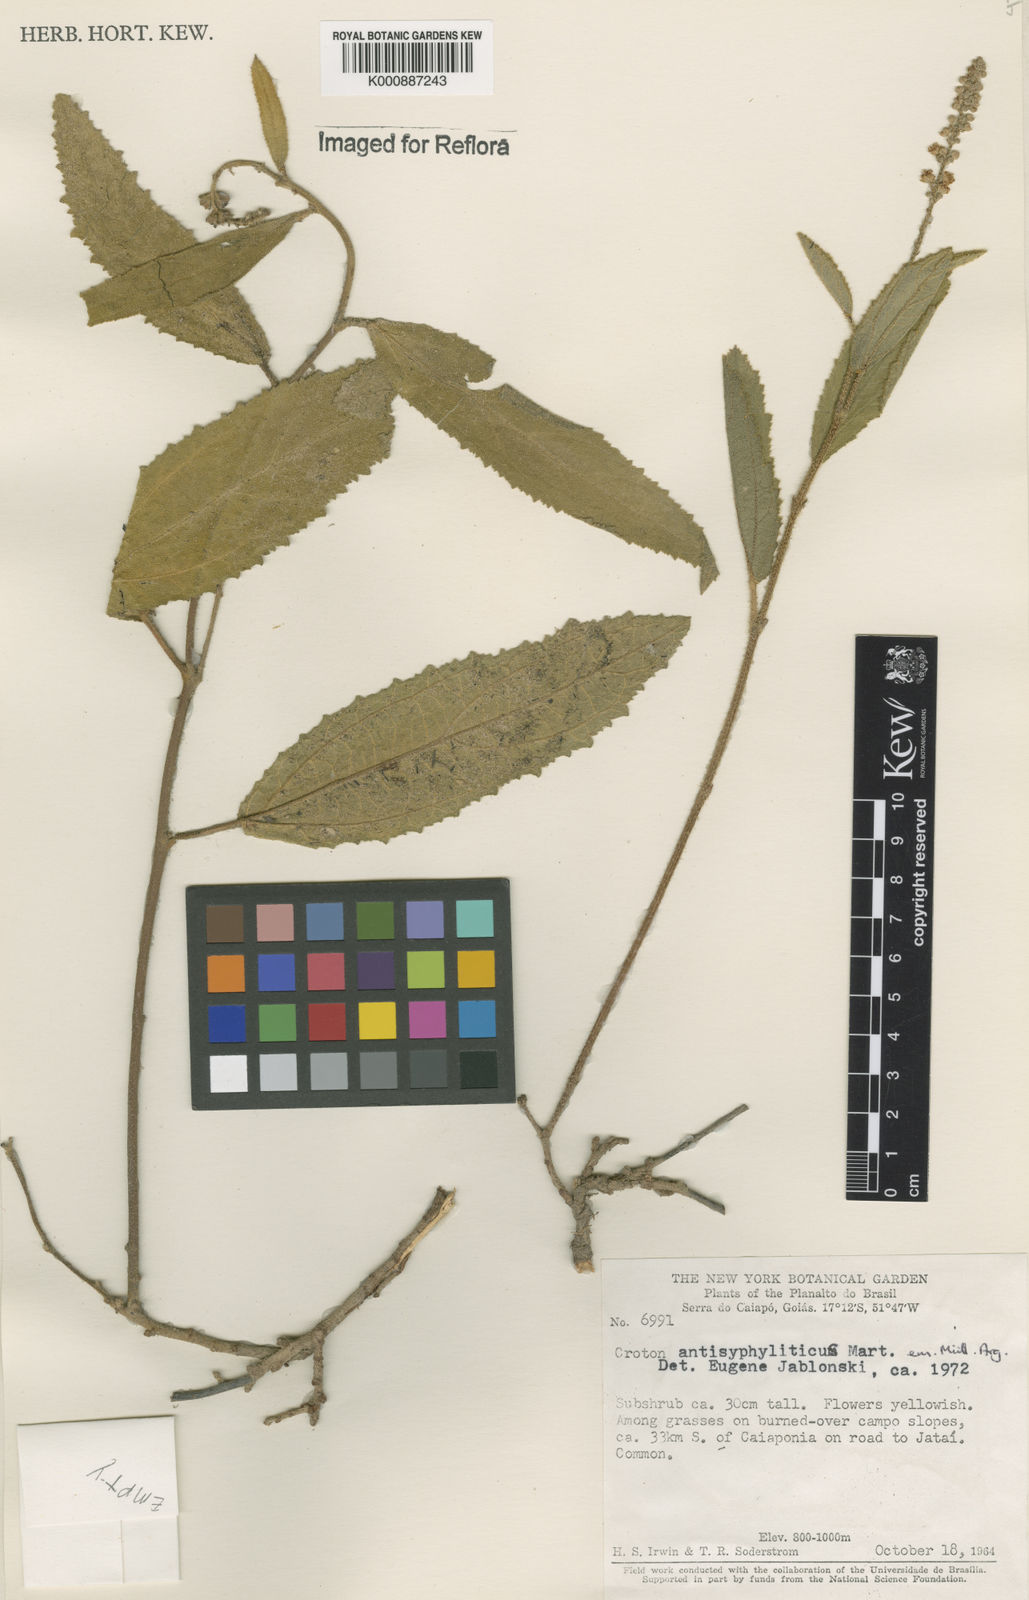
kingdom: Plantae
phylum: Tracheophyta
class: Magnoliopsida
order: Malpighiales
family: Euphorbiaceae
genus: Croton
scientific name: Croton antisyphiliticus
